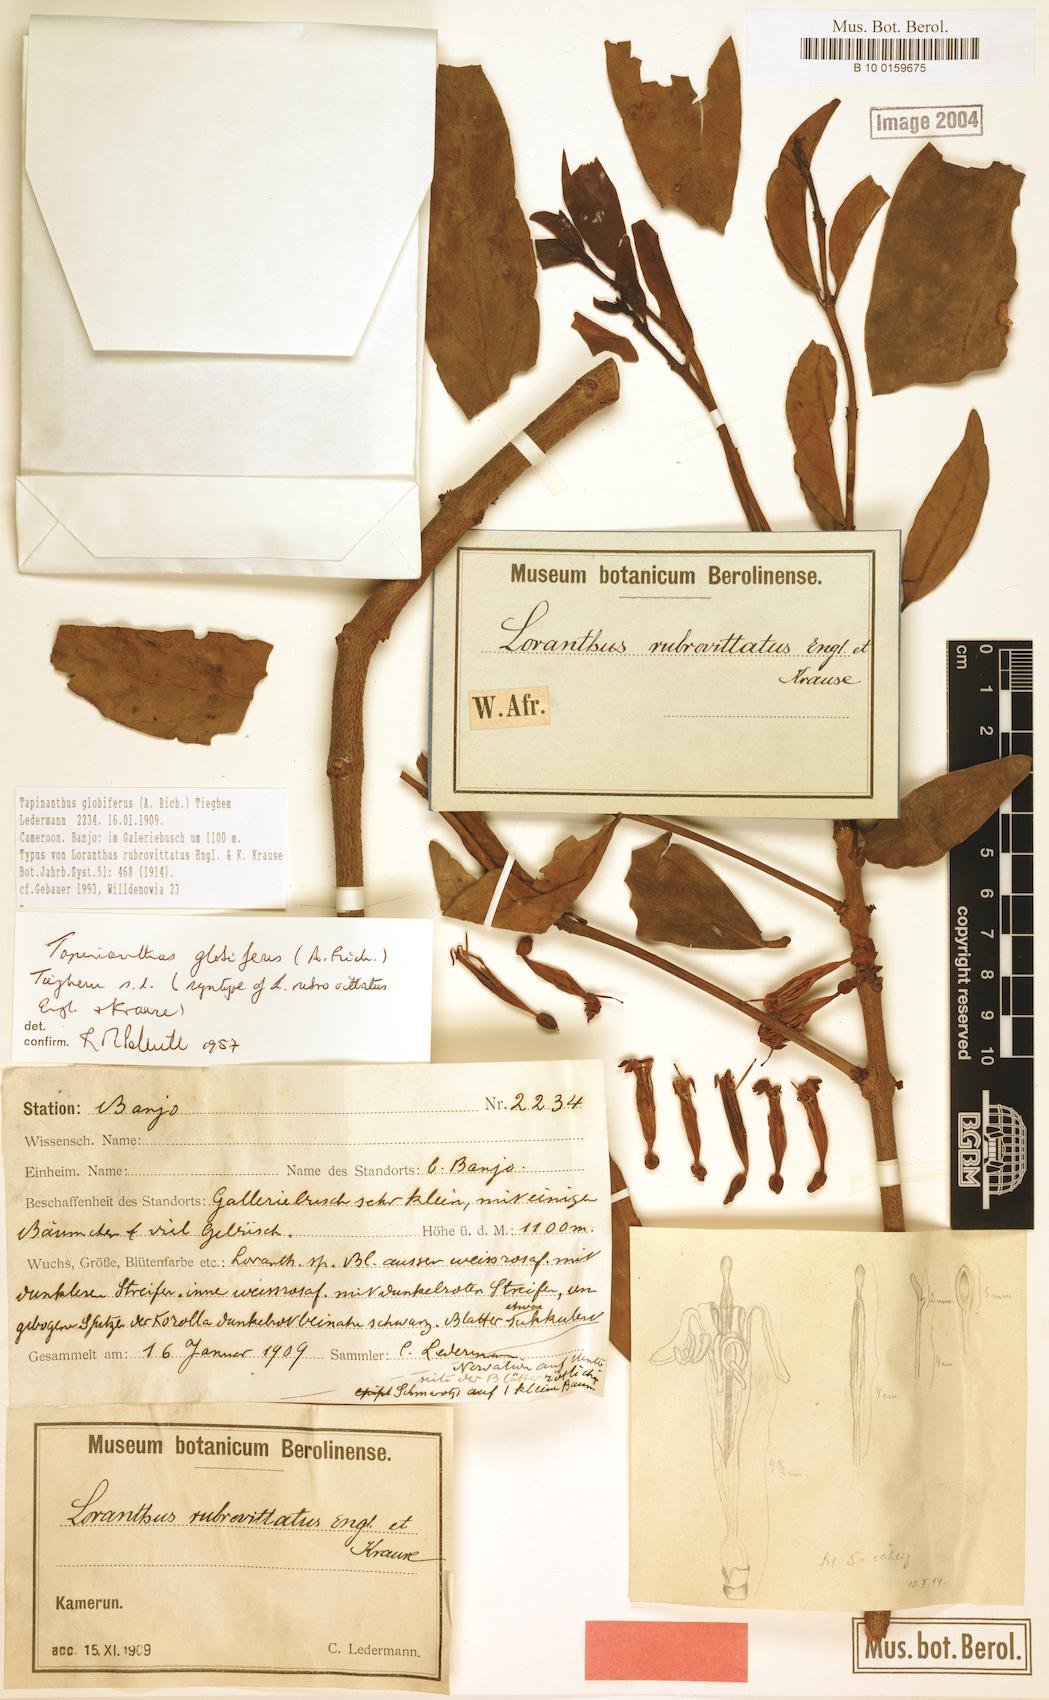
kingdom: Plantae
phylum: Tracheophyta
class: Magnoliopsida
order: Santalales
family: Loranthaceae
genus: Tapinanthus
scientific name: Tapinanthus globiferus
